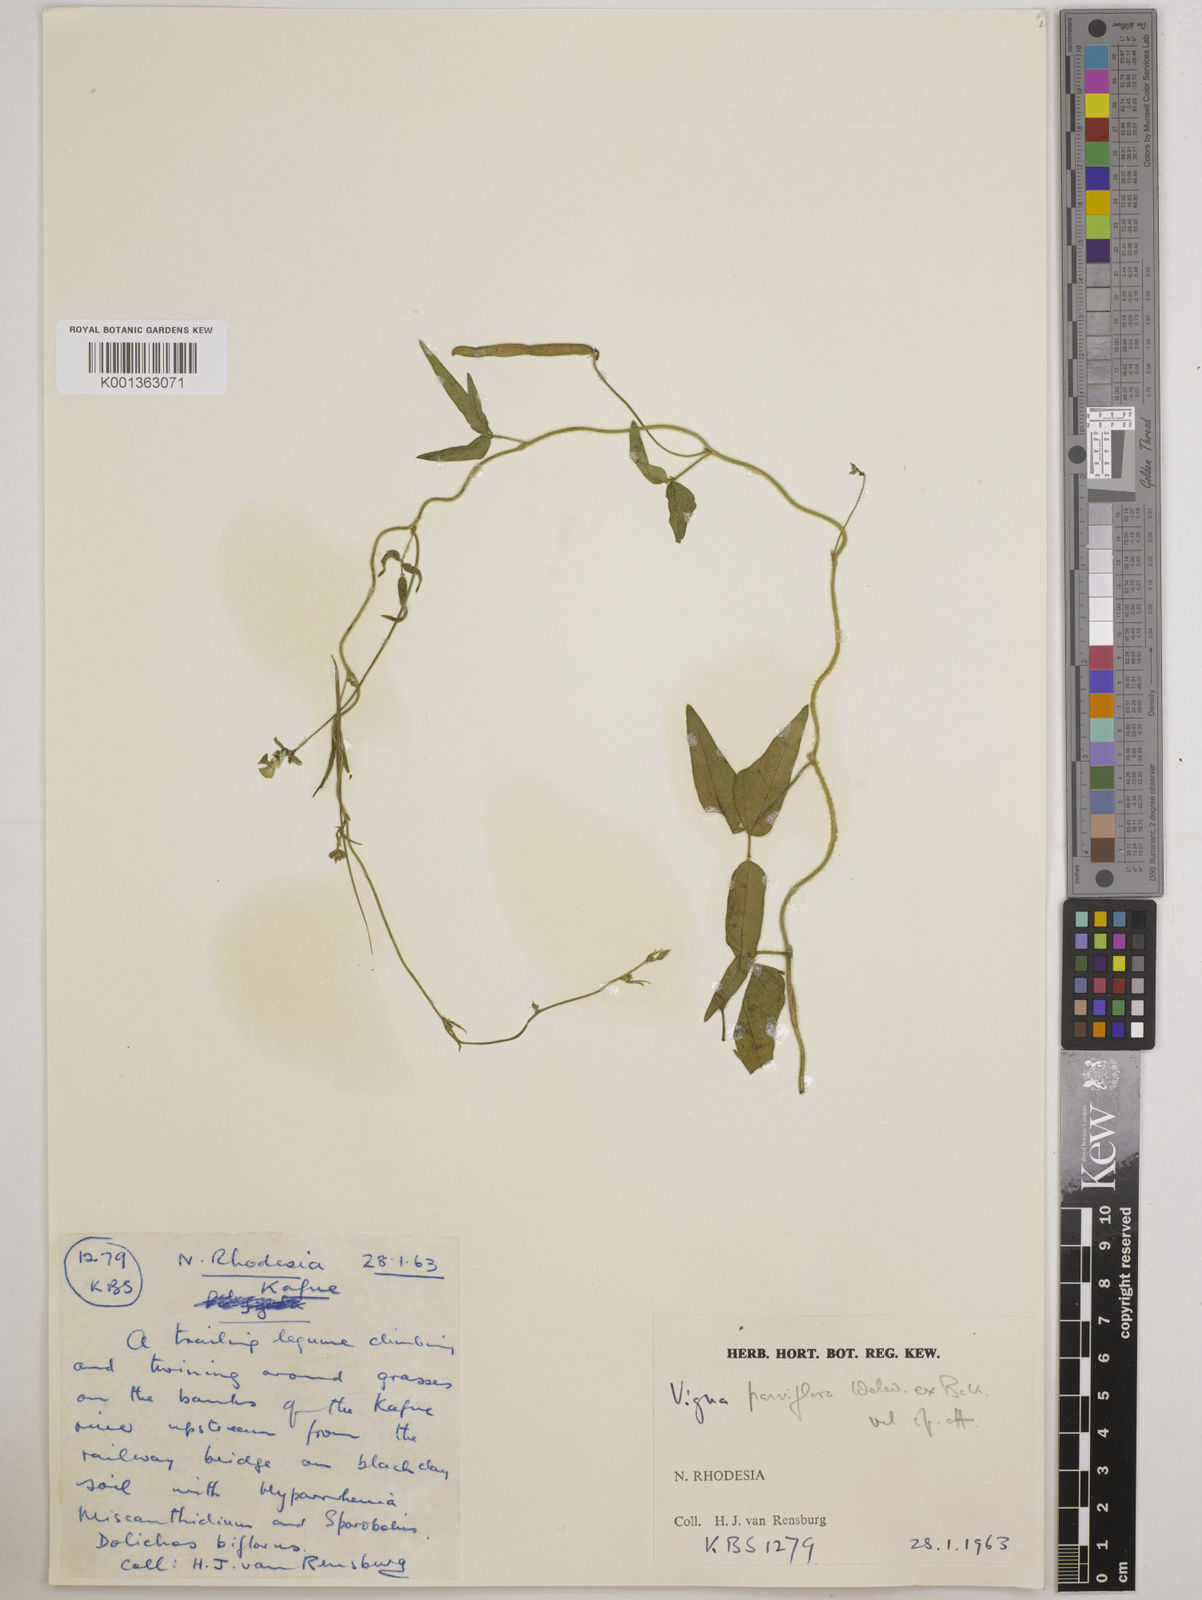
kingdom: Plantae
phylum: Tracheophyta
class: Magnoliopsida
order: Fabales
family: Fabaceae
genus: Vigna
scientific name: Vigna
